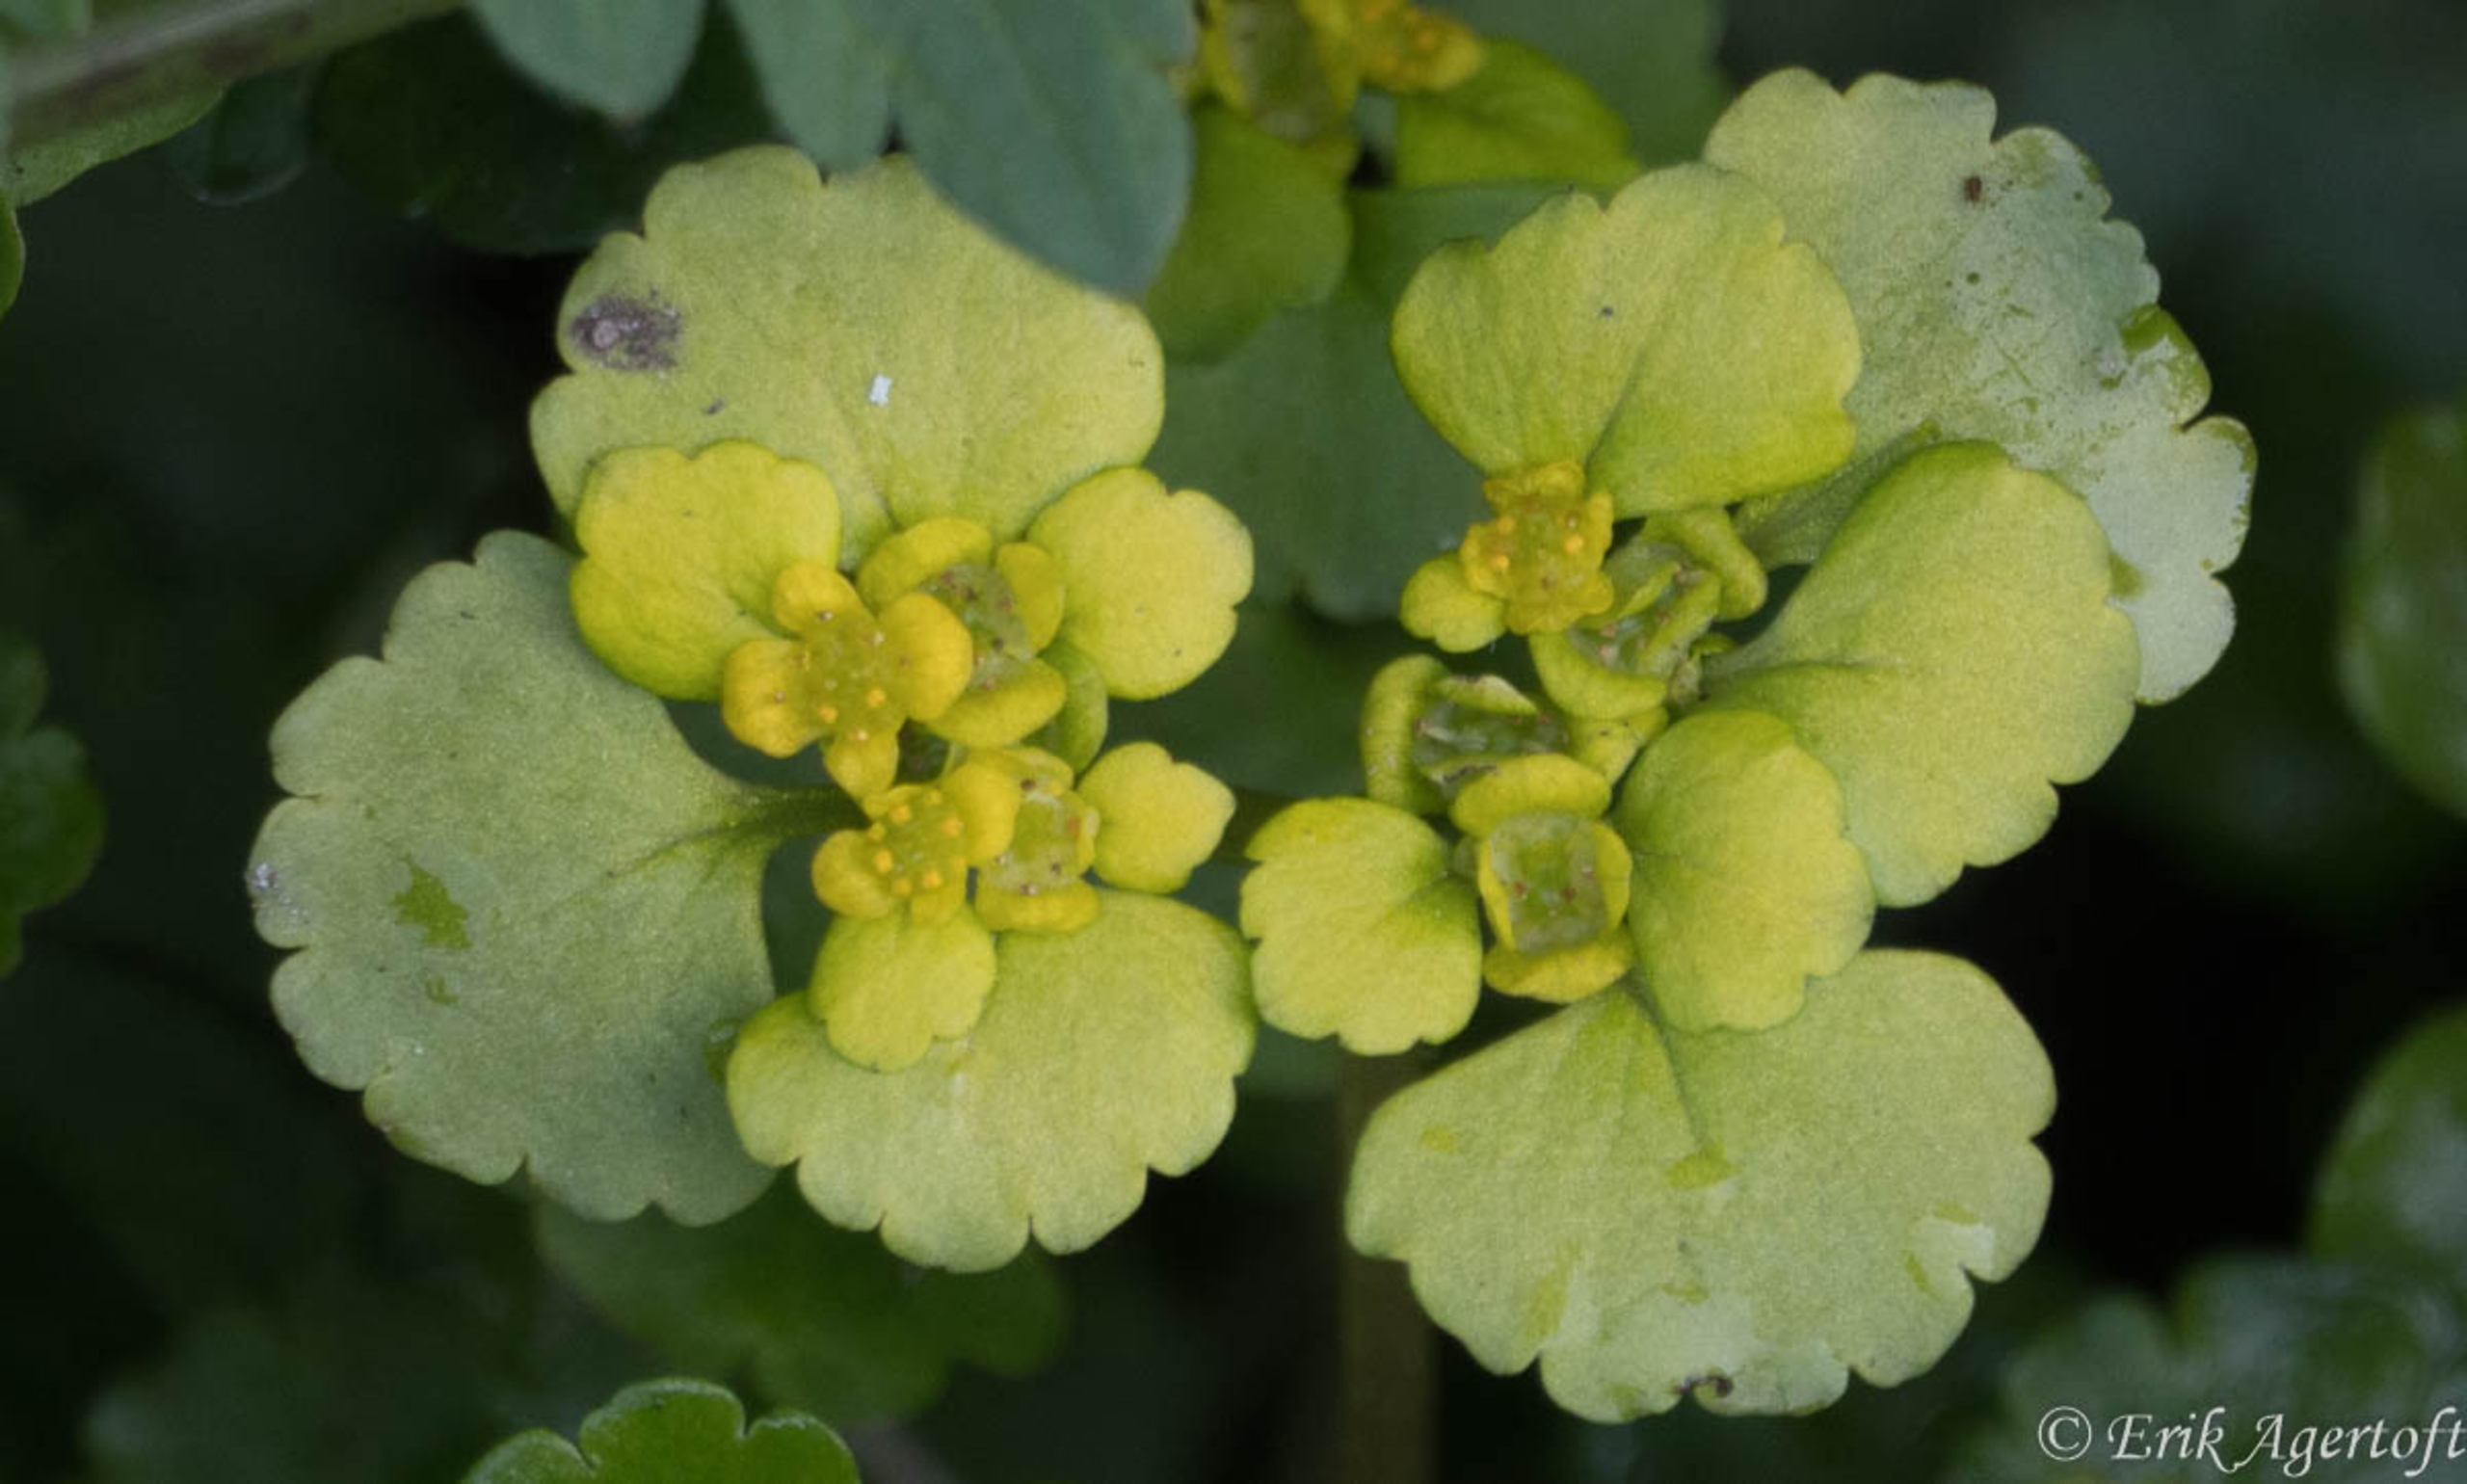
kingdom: Plantae
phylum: Tracheophyta
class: Magnoliopsida
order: Saxifragales
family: Saxifragaceae
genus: Chrysosplenium
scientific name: Chrysosplenium alternifolium
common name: Almindelig milturt
